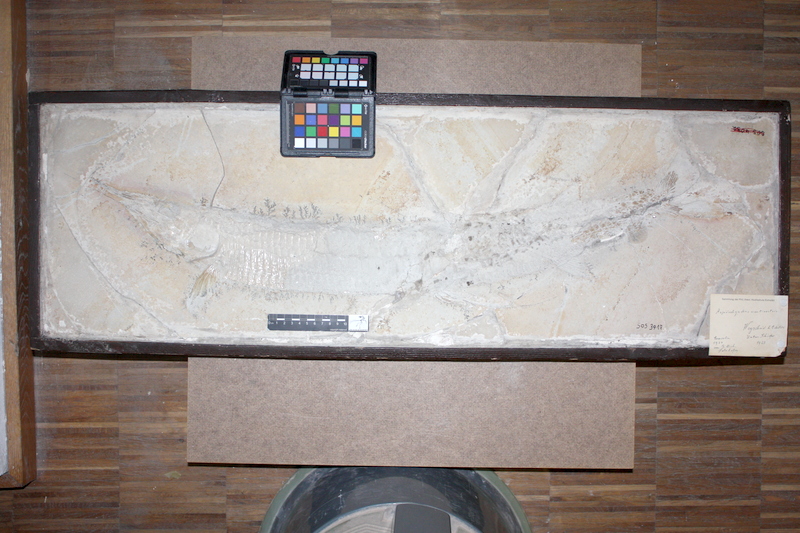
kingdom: Animalia
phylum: Chordata
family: Aspidorhynchidae
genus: Aspidorhynchus
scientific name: Aspidorhynchus acutirostris
